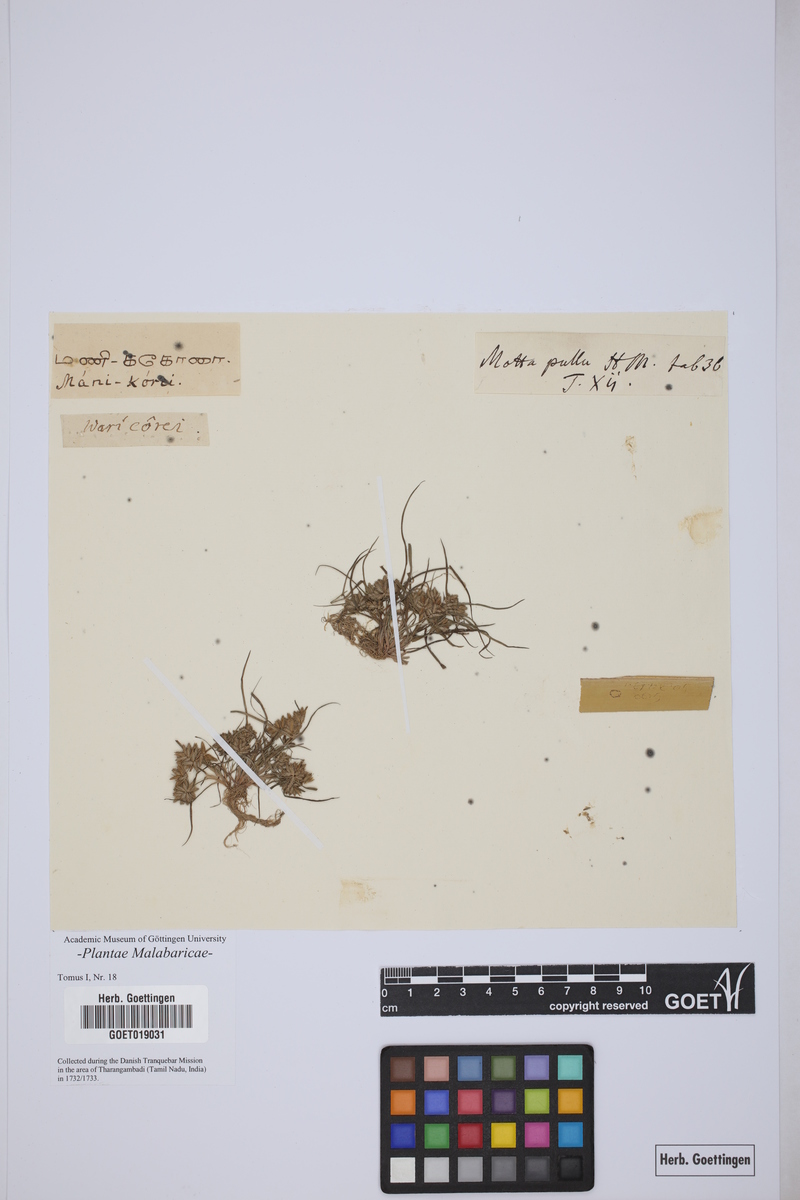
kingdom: Plantae
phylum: Tracheophyta
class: Liliopsida
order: Poales
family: Cyperaceae
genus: Cyperus
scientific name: Cyperus neochinensis
